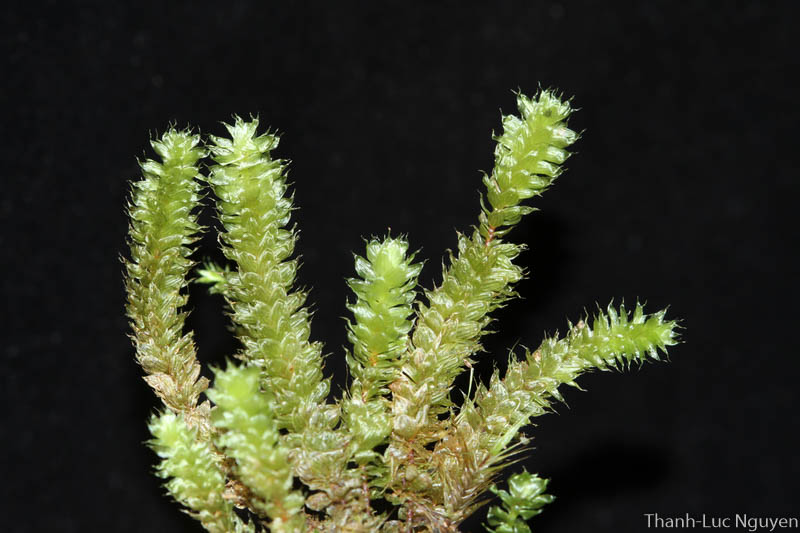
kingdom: Plantae
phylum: Bryophyta
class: Bryopsida
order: Ptychomniales
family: Ptychomniaceae
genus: Garovaglia
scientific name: Garovaglia
